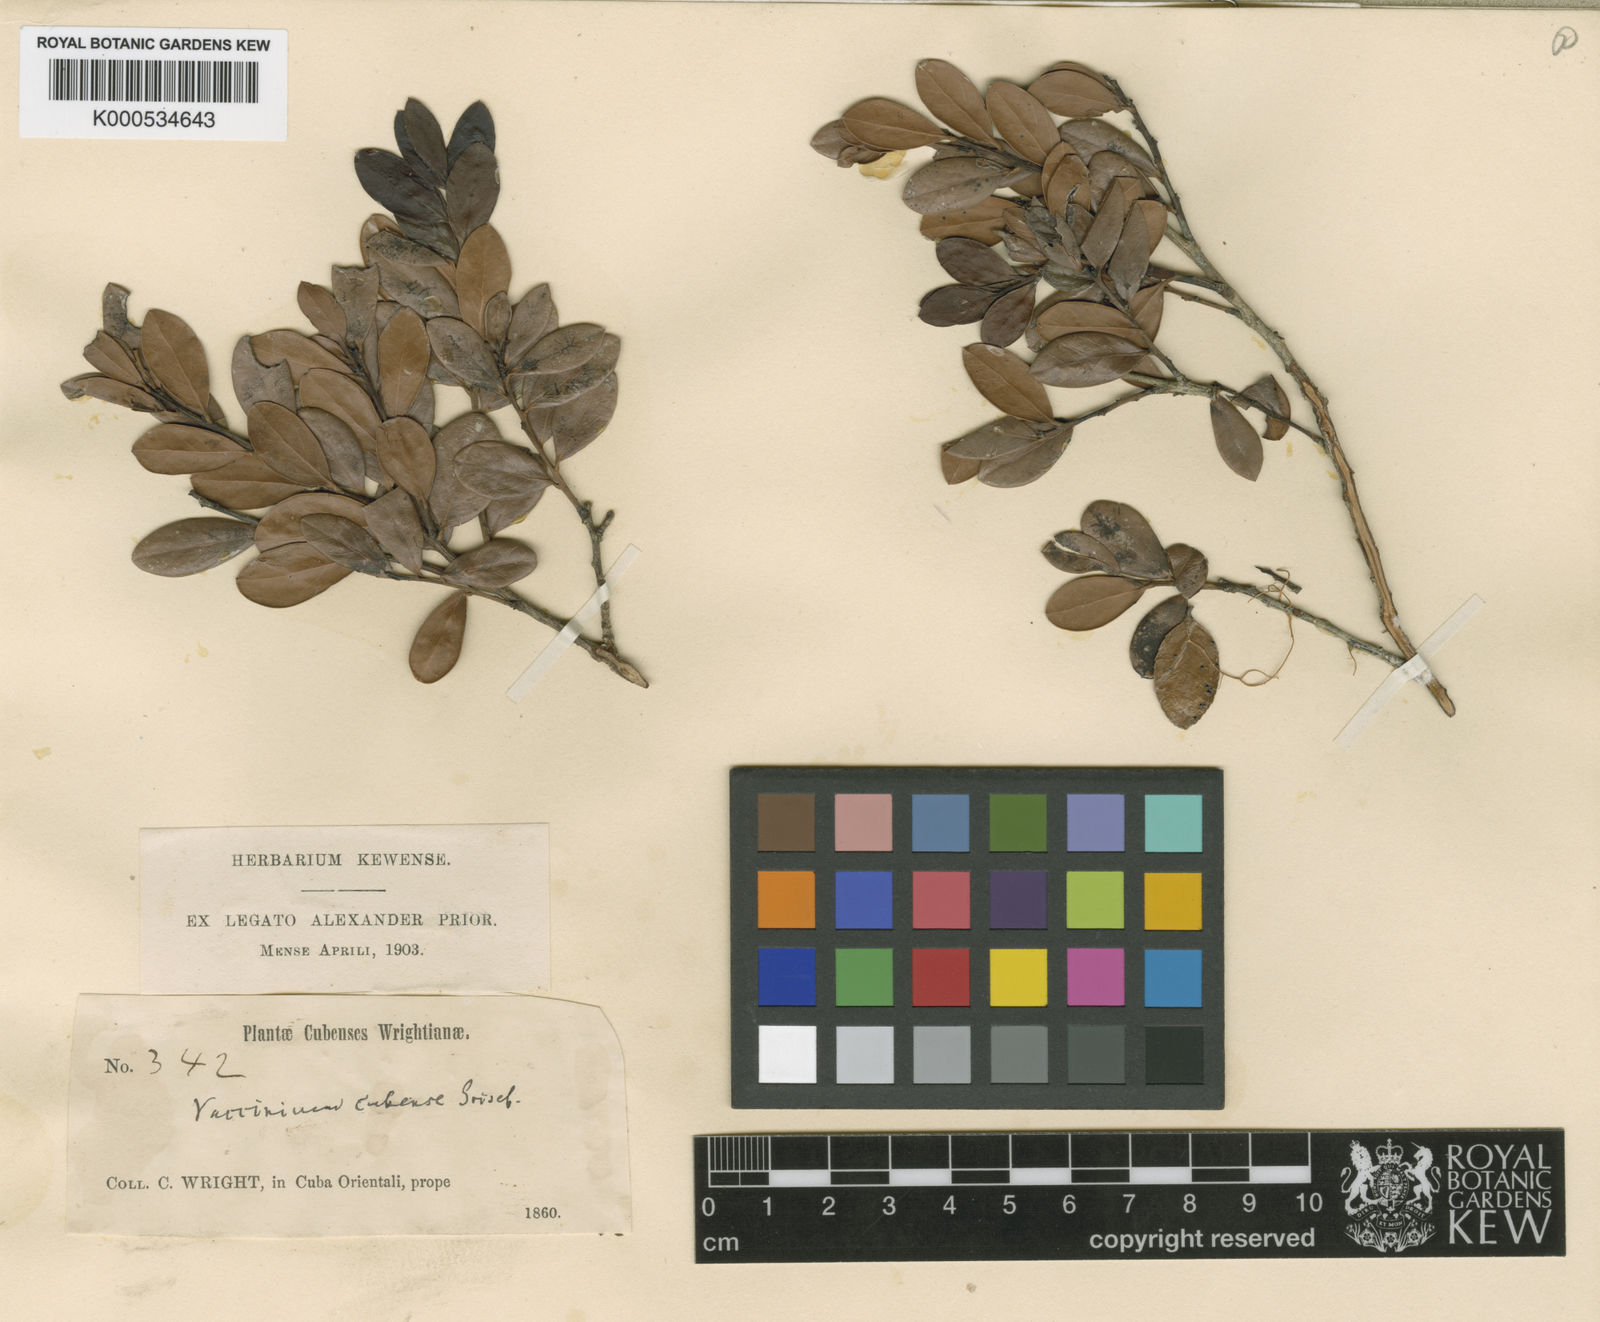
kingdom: Plantae
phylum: Tracheophyta
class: Magnoliopsida
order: Ericales
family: Ericaceae
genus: Vaccinium
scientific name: Vaccinium cubense
